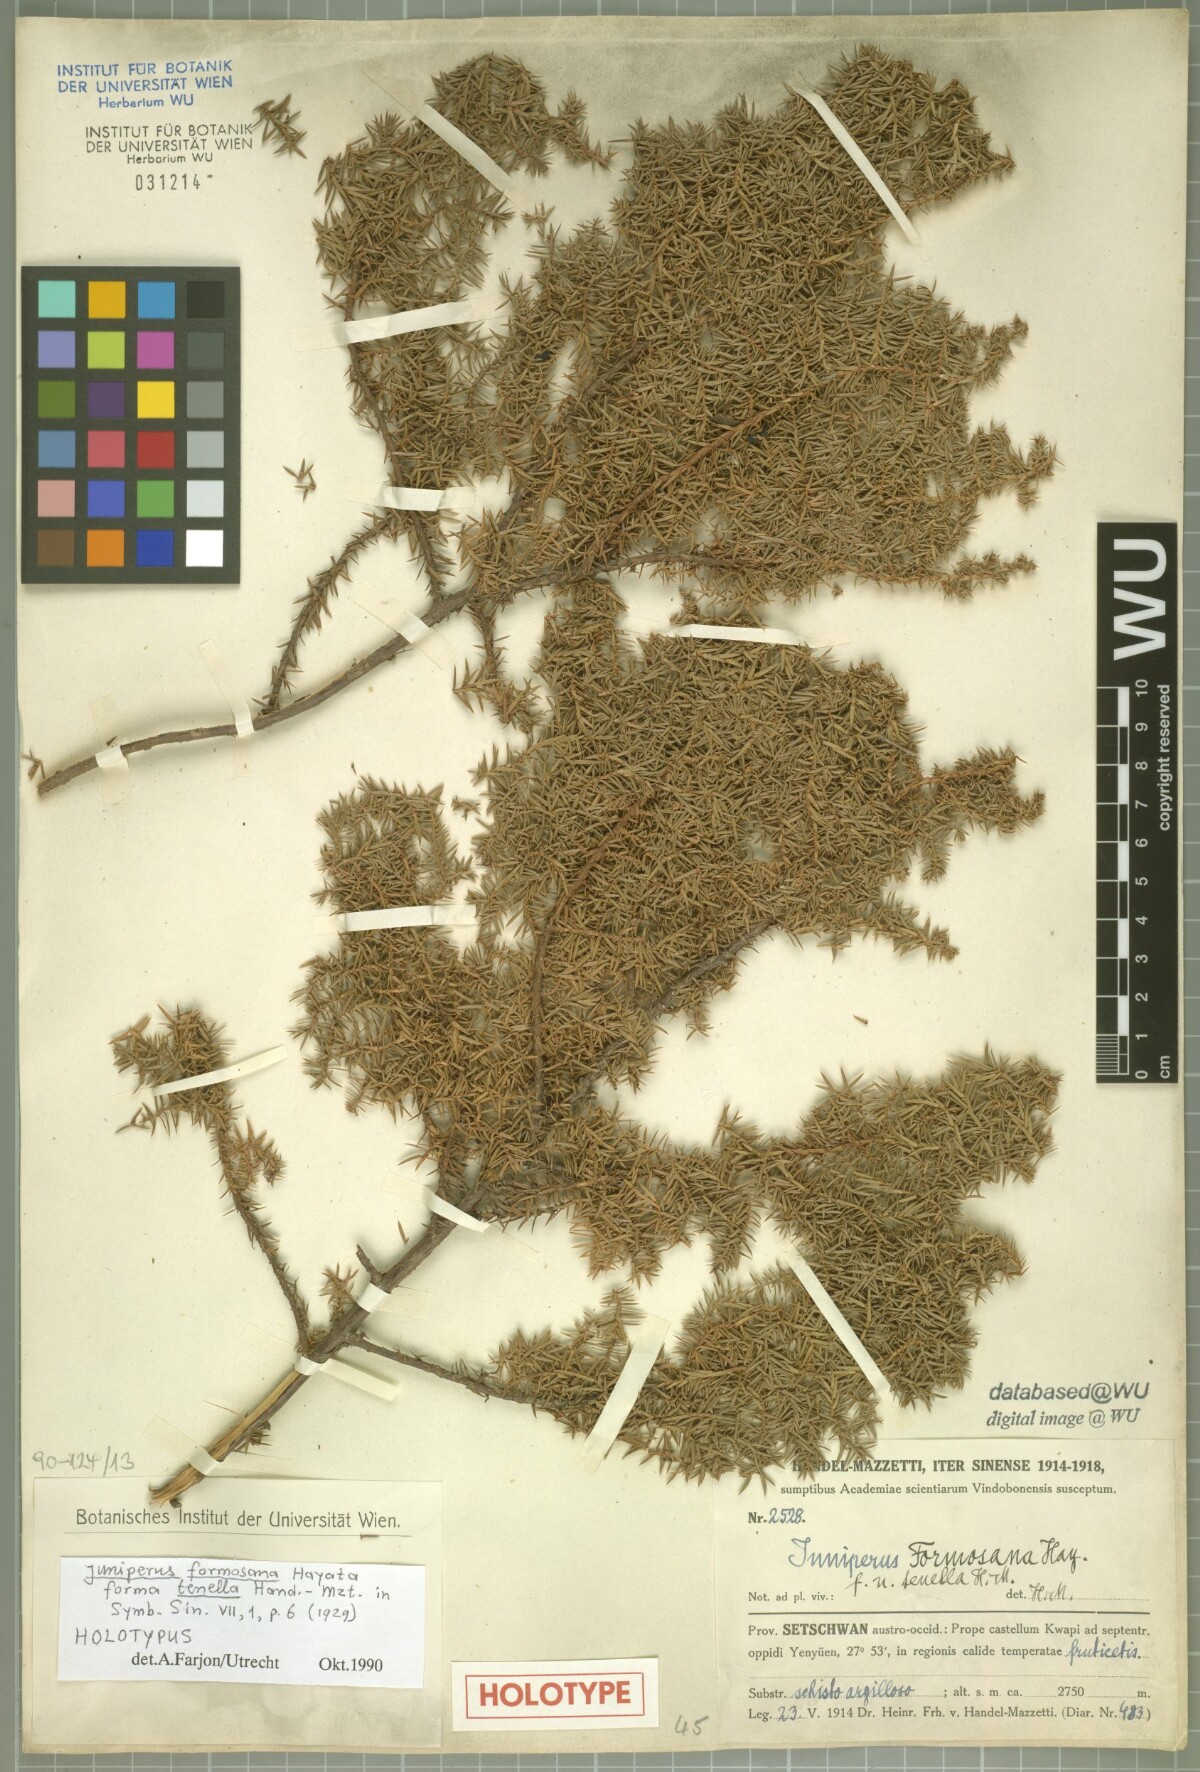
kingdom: Plantae
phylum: Tracheophyta
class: Pinopsida
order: Pinales
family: Cupressaceae
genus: Juniperus
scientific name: Juniperus formosana
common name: Formosan juniper
